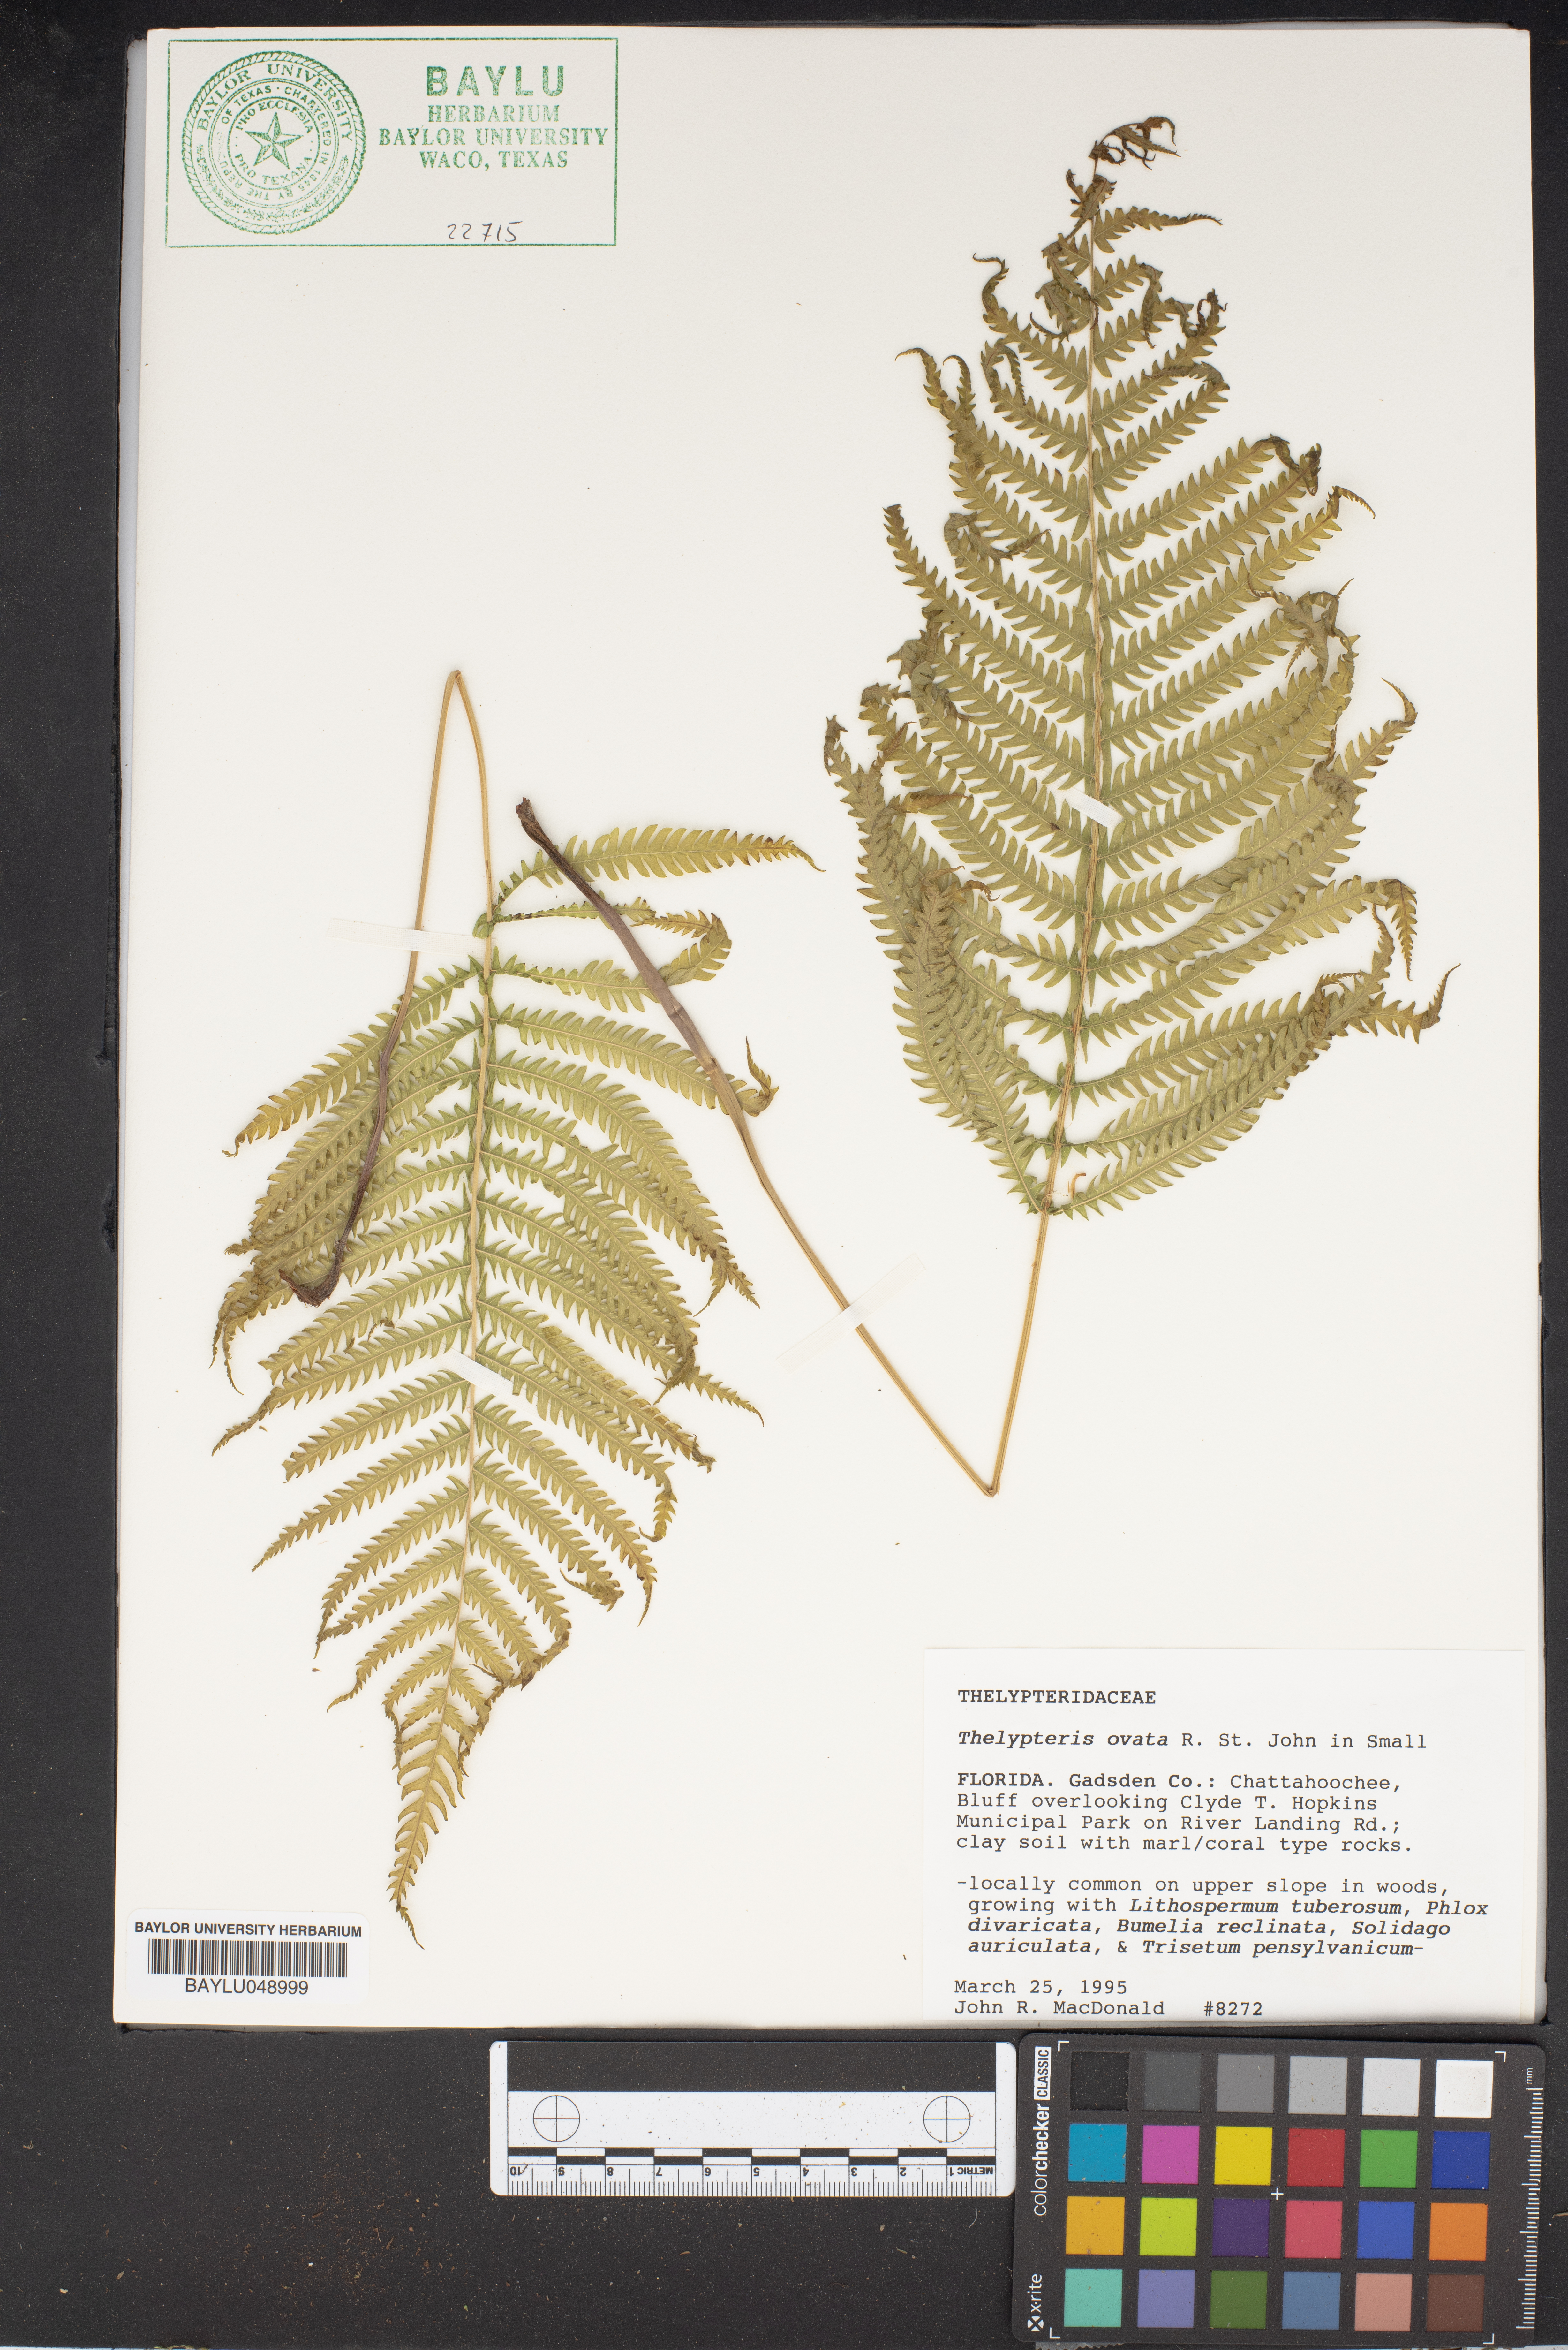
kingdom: Plantae
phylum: Tracheophyta
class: Polypodiopsida
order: Polypodiales
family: Thelypteridaceae
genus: Pelazoneuron
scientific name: Pelazoneuron ovatum
